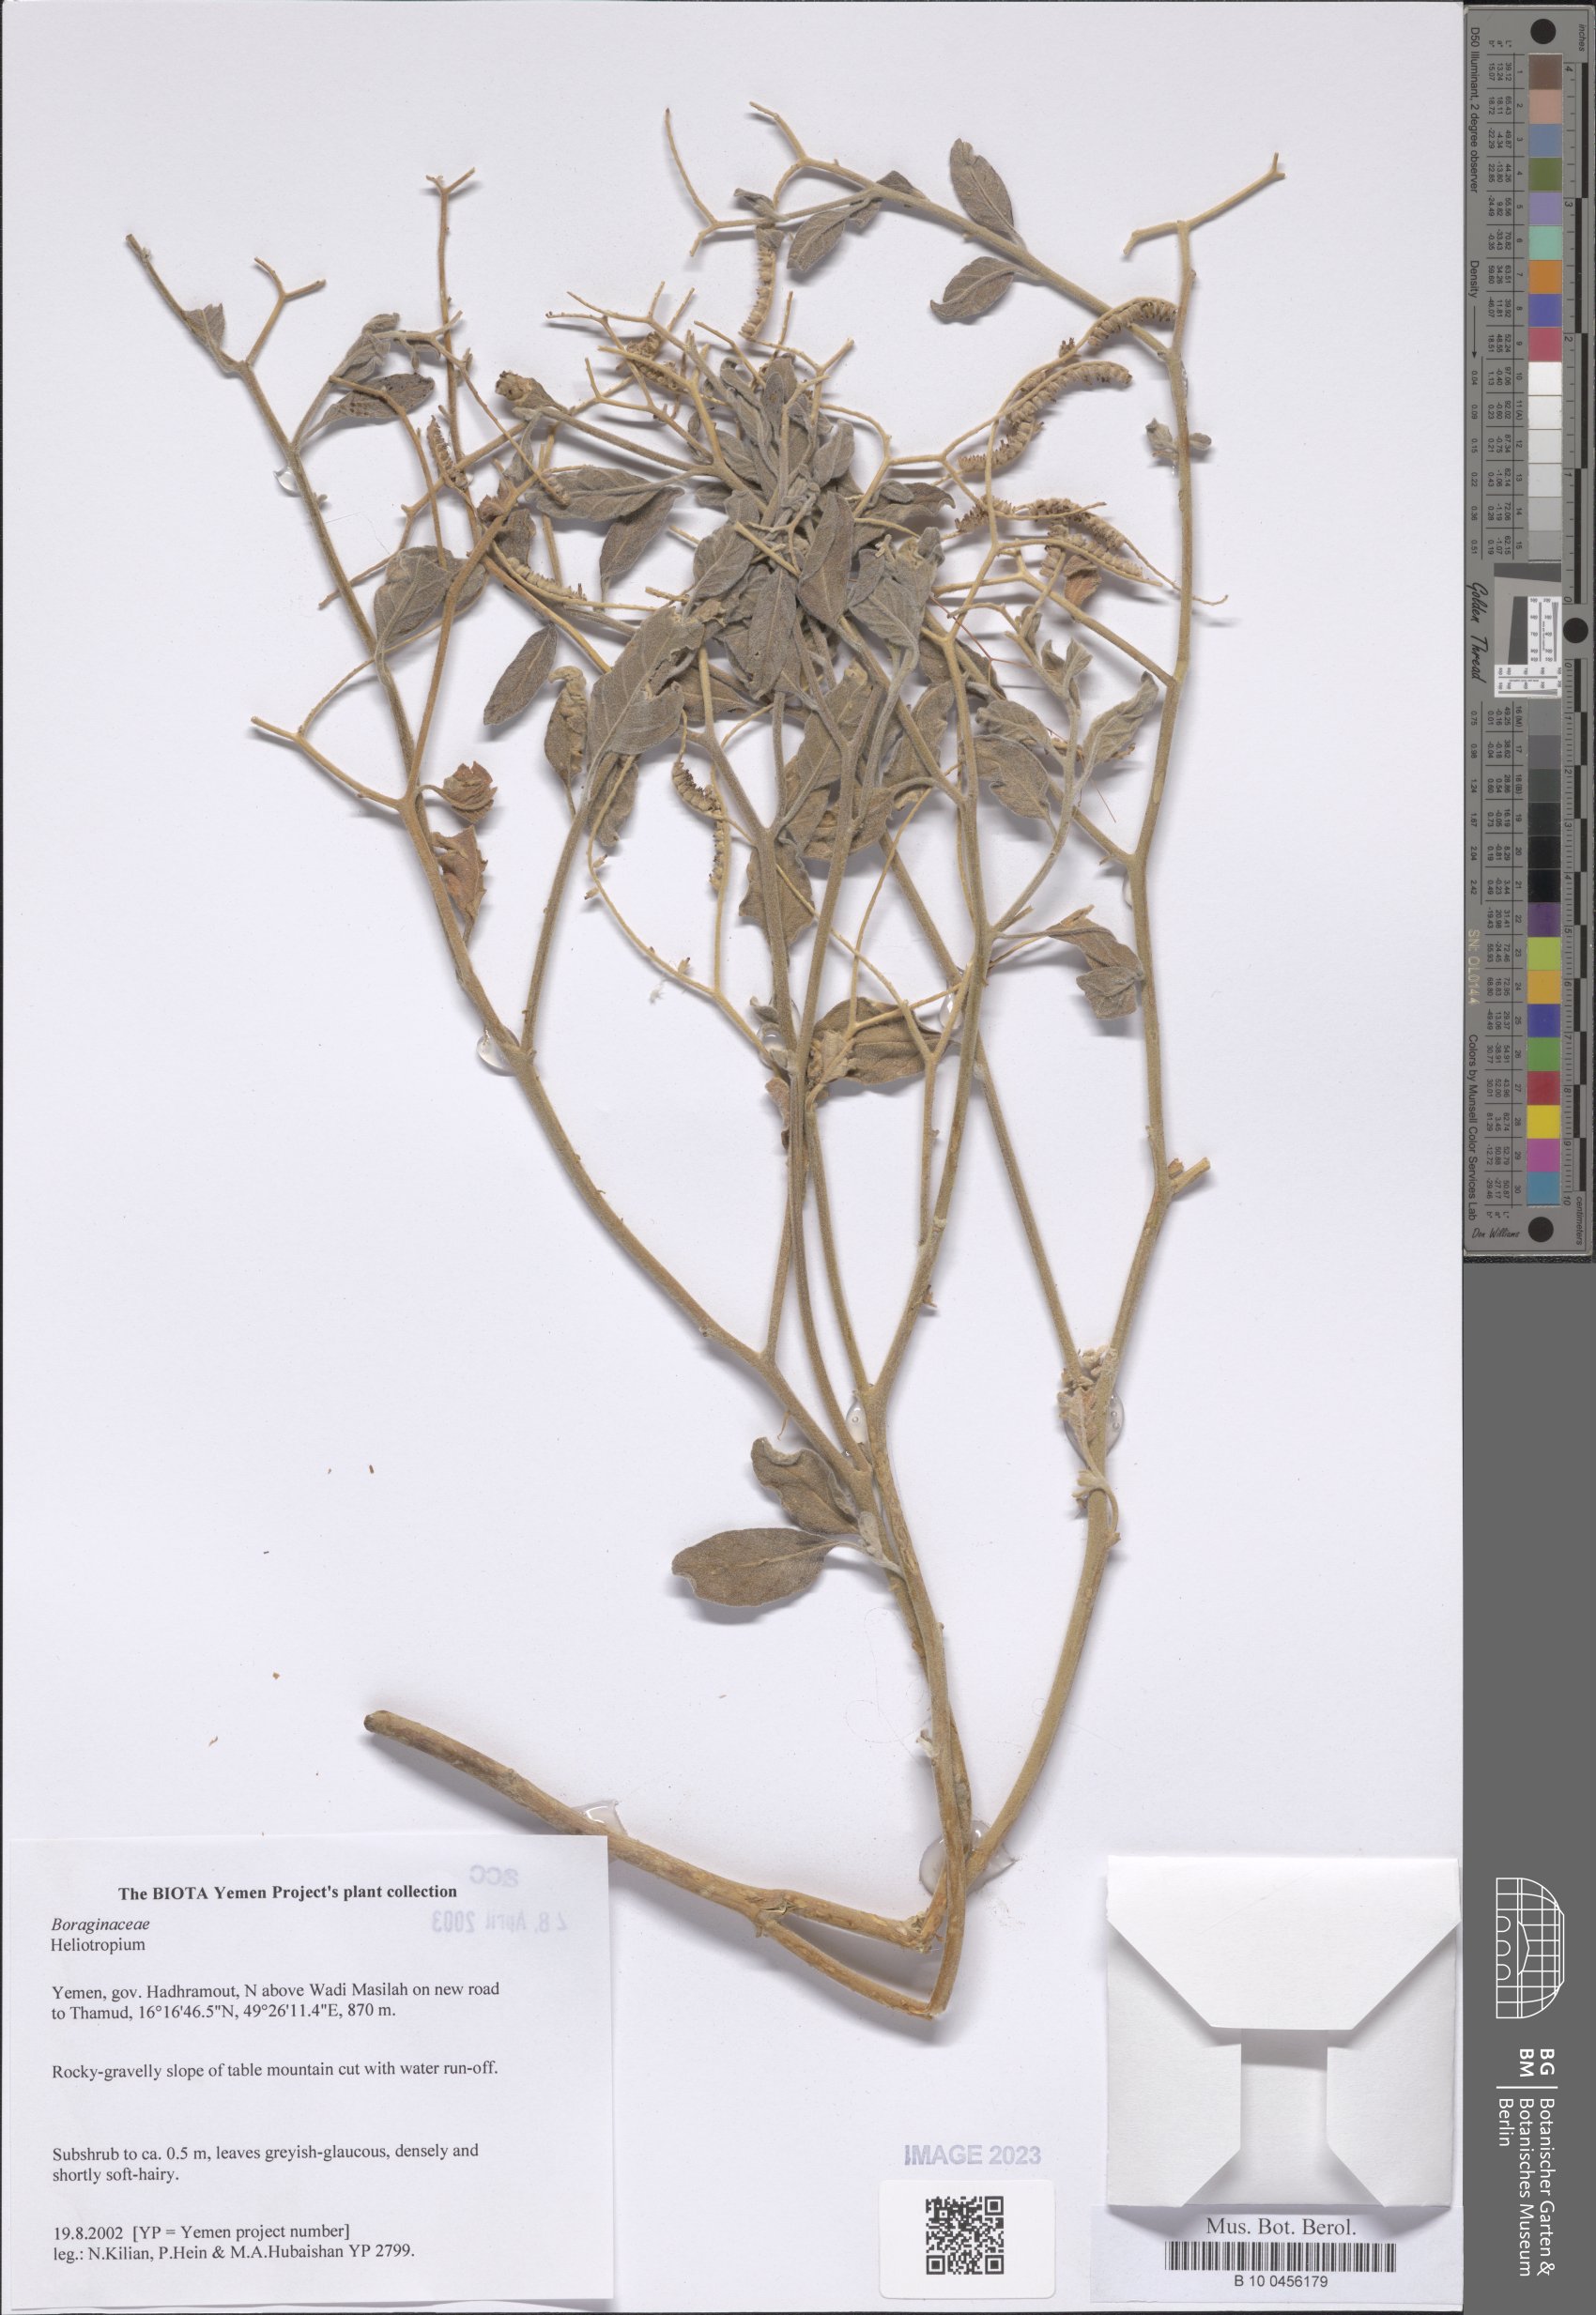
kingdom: Plantae
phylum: Tracheophyta
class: Magnoliopsida
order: Boraginales
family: Heliotropiaceae
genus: Heliotropium
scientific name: Heliotropium
